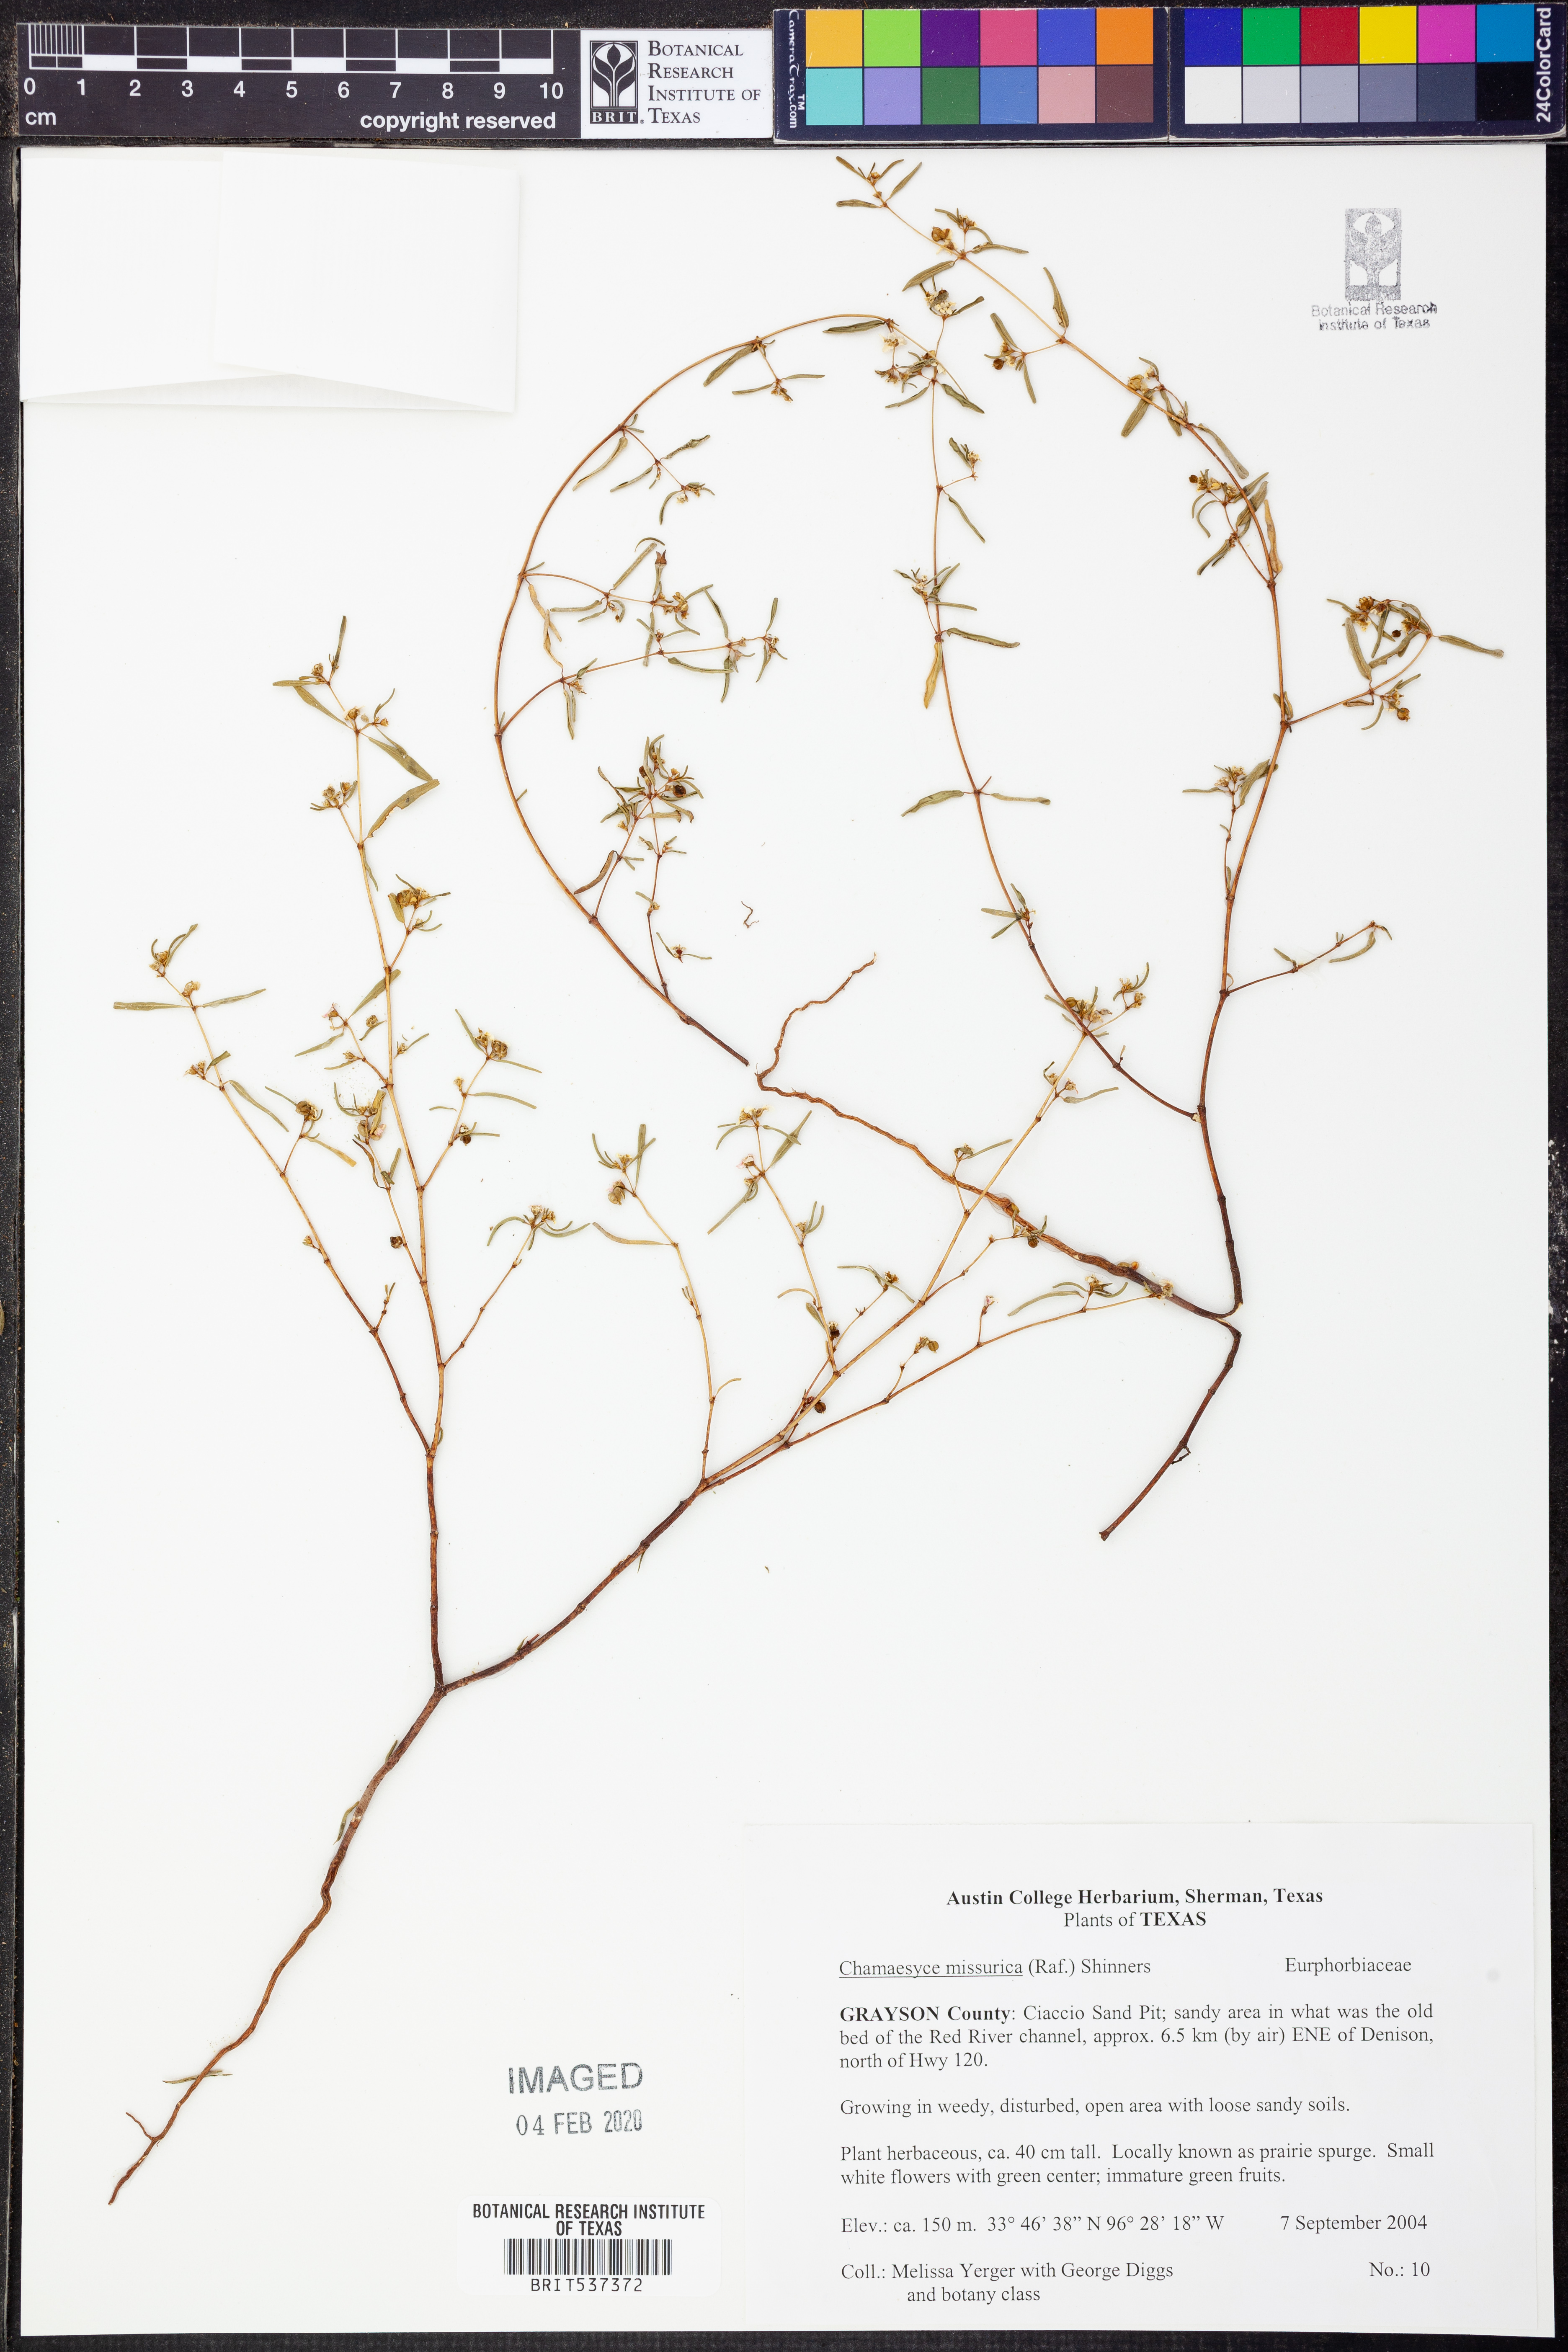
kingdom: Plantae
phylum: Tracheophyta
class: Magnoliopsida
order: Malpighiales
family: Euphorbiaceae
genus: Euphorbia
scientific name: Euphorbia missurica
